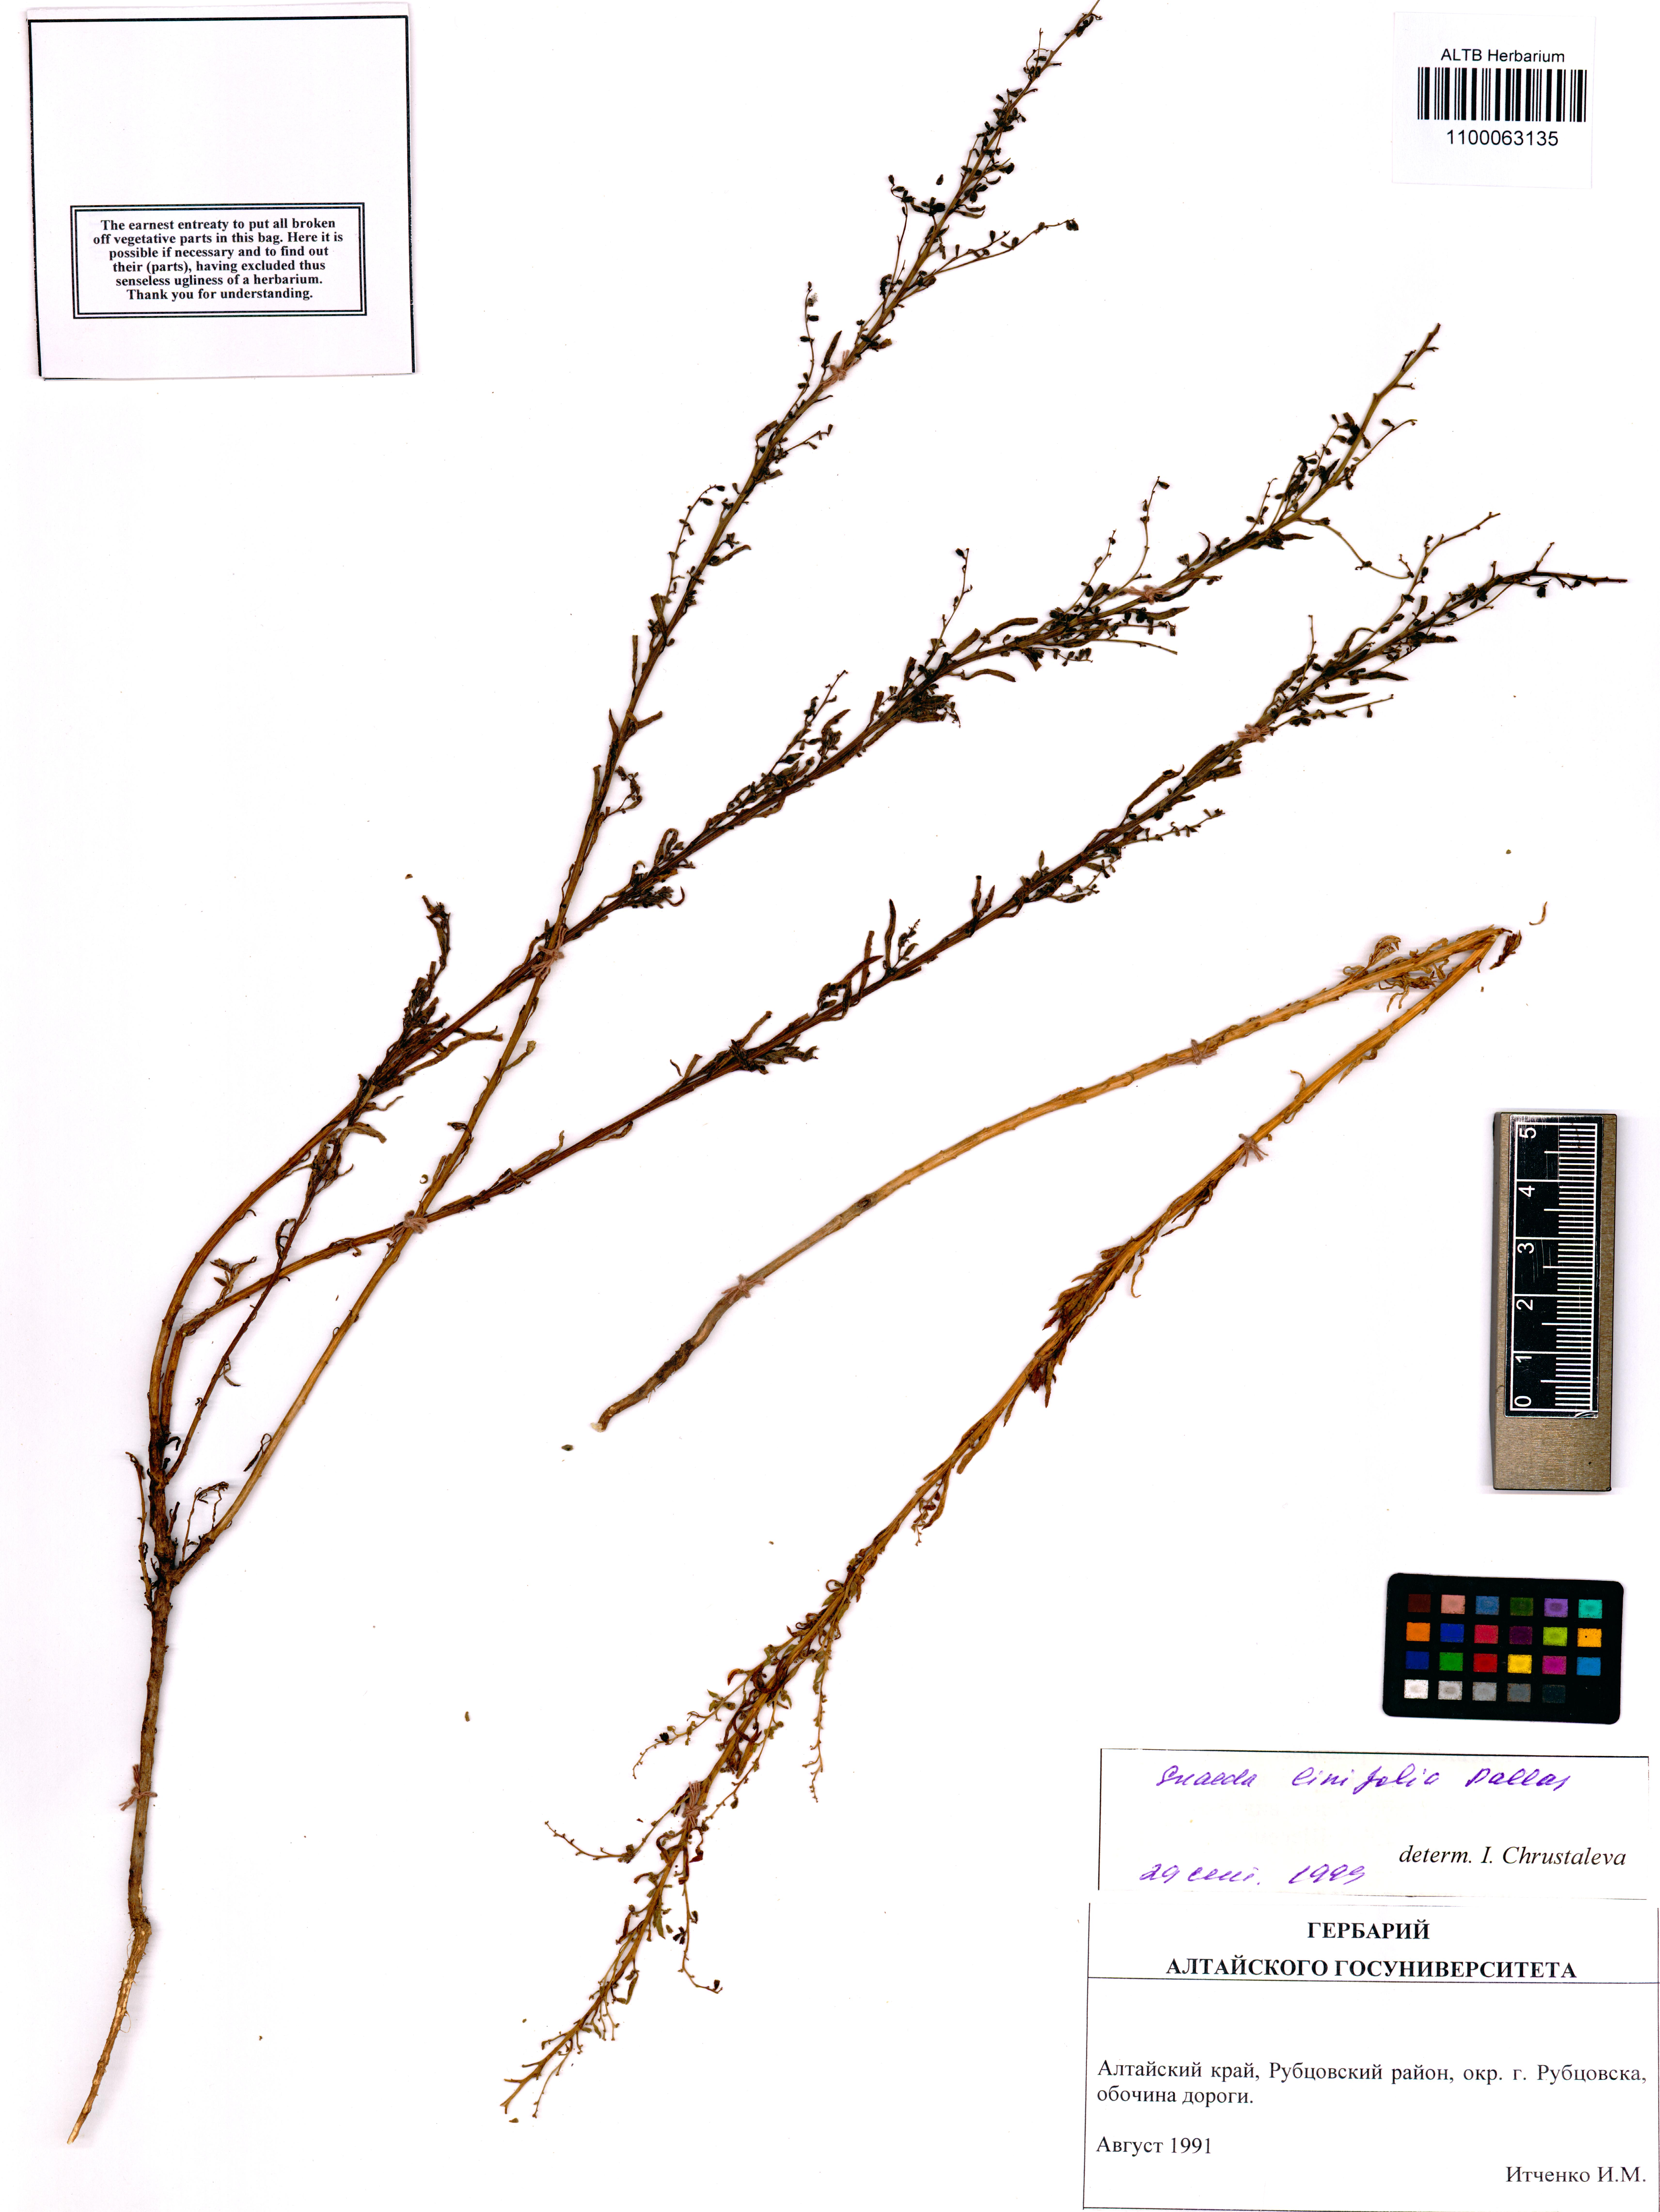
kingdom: Plantae
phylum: Tracheophyta
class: Magnoliopsida
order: Caryophyllales
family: Amaranthaceae
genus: Suaeda
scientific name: Suaeda linifolia
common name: Pin-leaf seepweed
